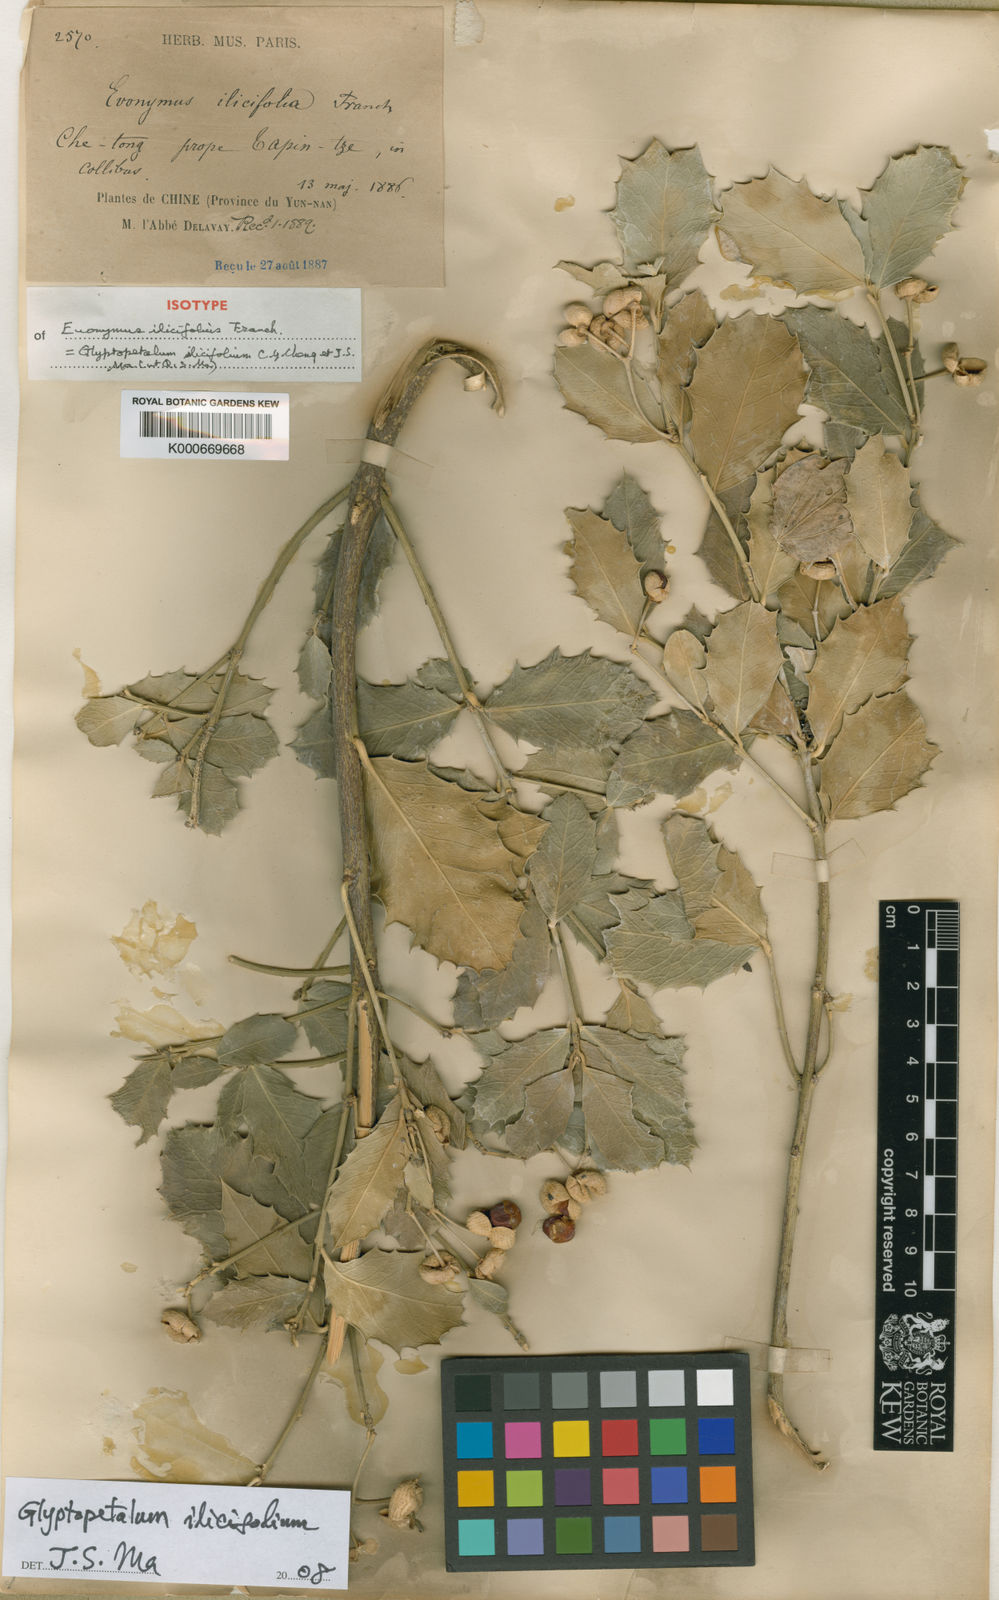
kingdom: Plantae
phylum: Tracheophyta
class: Magnoliopsida
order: Celastrales
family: Celastraceae
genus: Euonymus
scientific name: Euonymus ilicifolius
